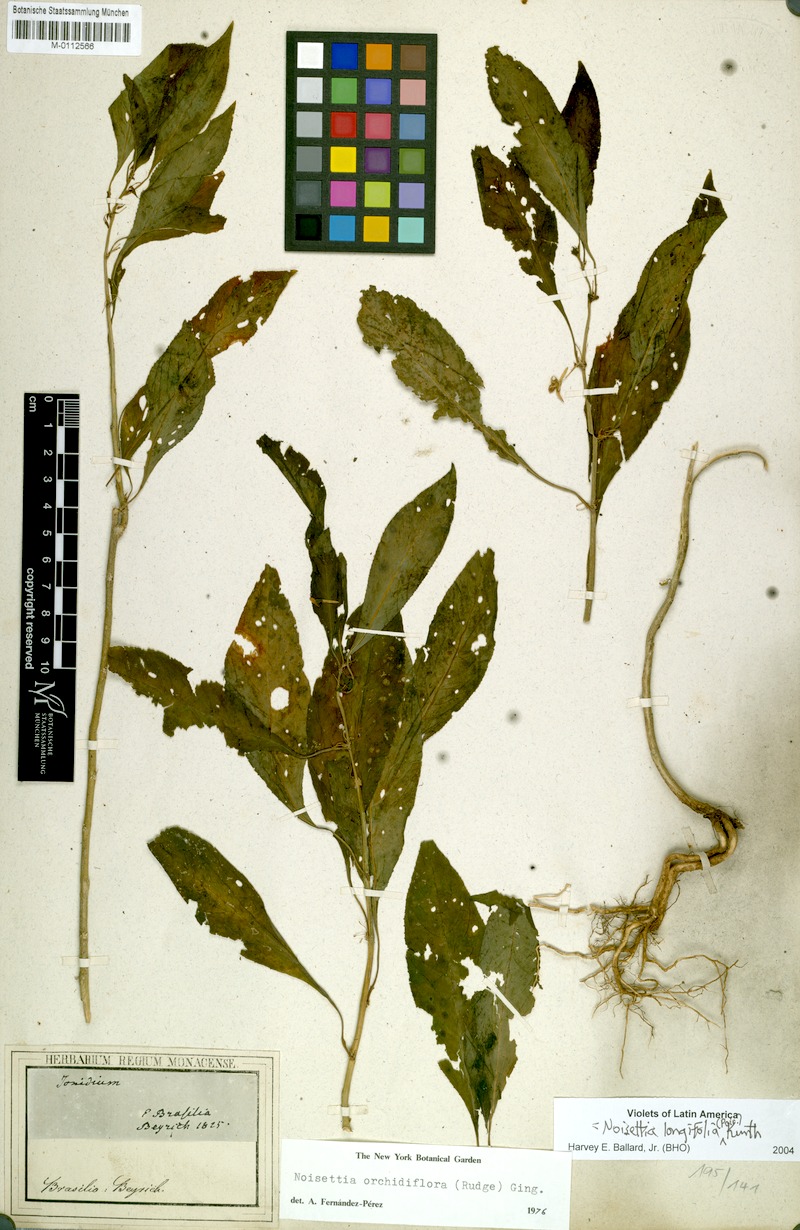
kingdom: Plantae
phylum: Tracheophyta
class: Magnoliopsida
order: Malpighiales
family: Violaceae
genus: Noisettia
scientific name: Noisettia orchidiflora
